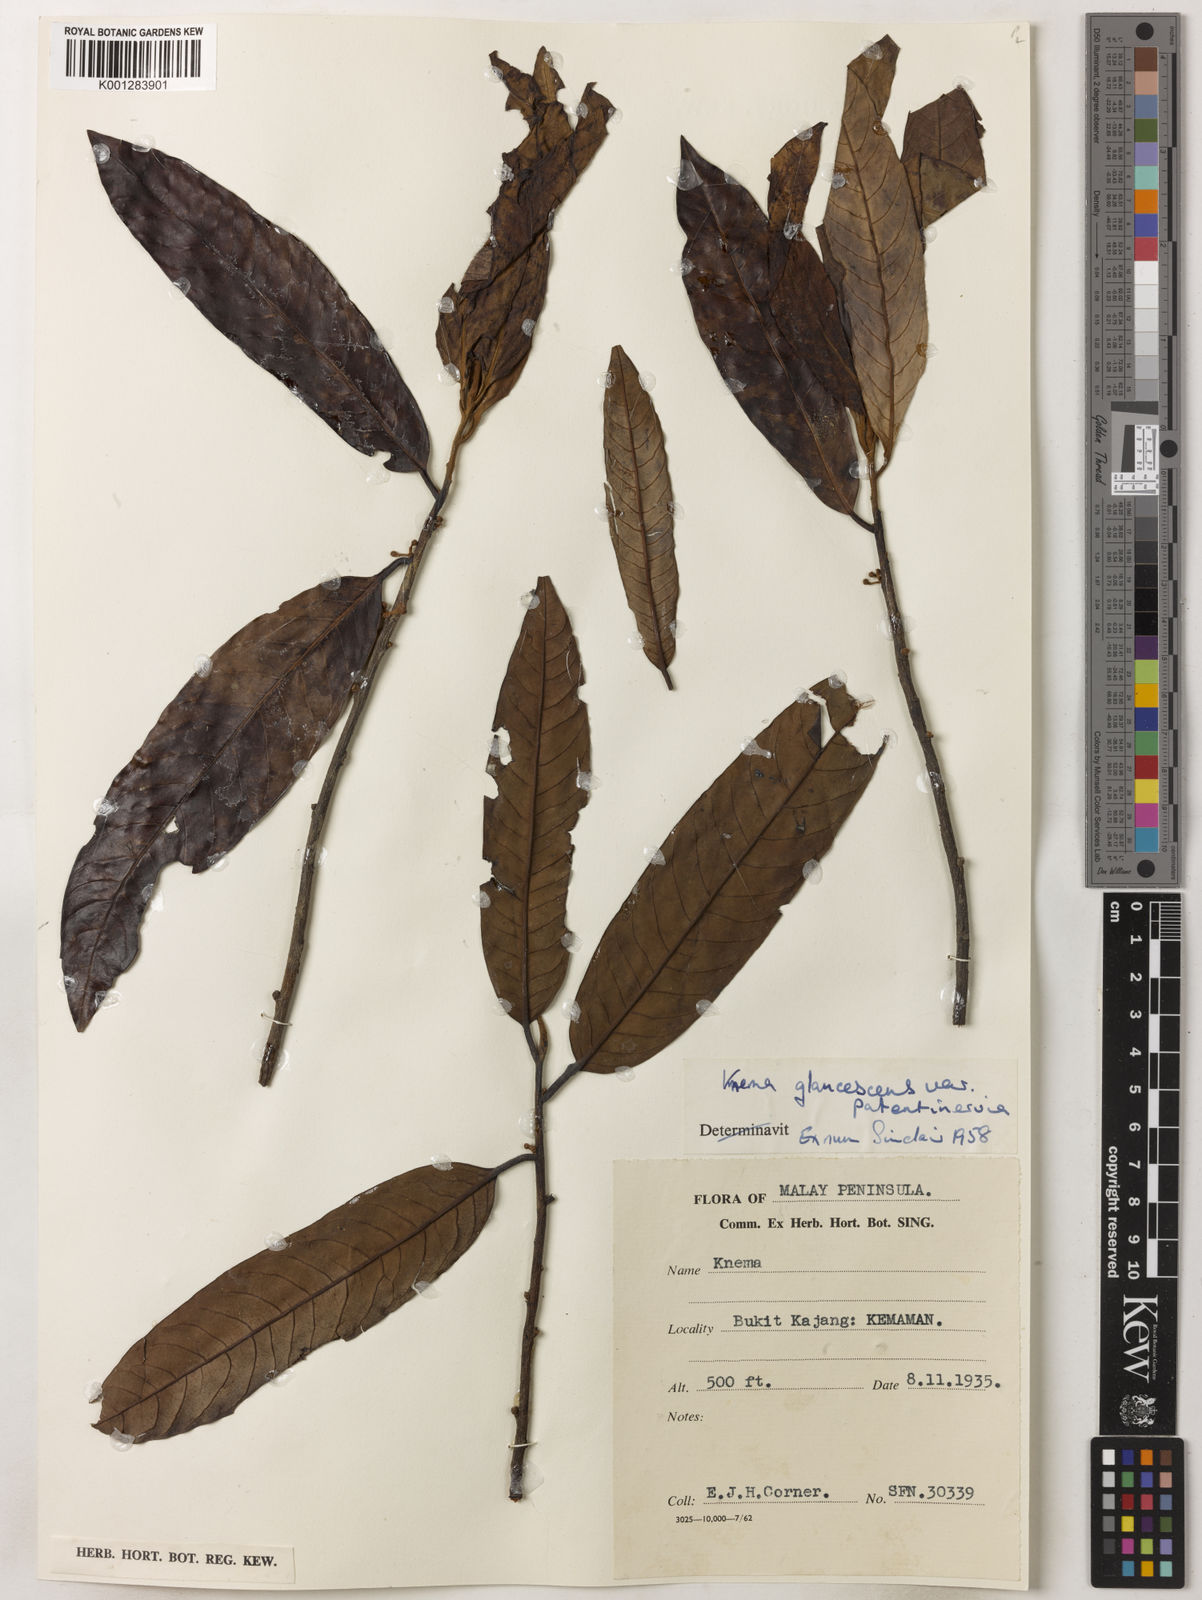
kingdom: Plantae
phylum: Tracheophyta
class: Magnoliopsida
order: Magnoliales
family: Myristicaceae
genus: Knema
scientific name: Knema
